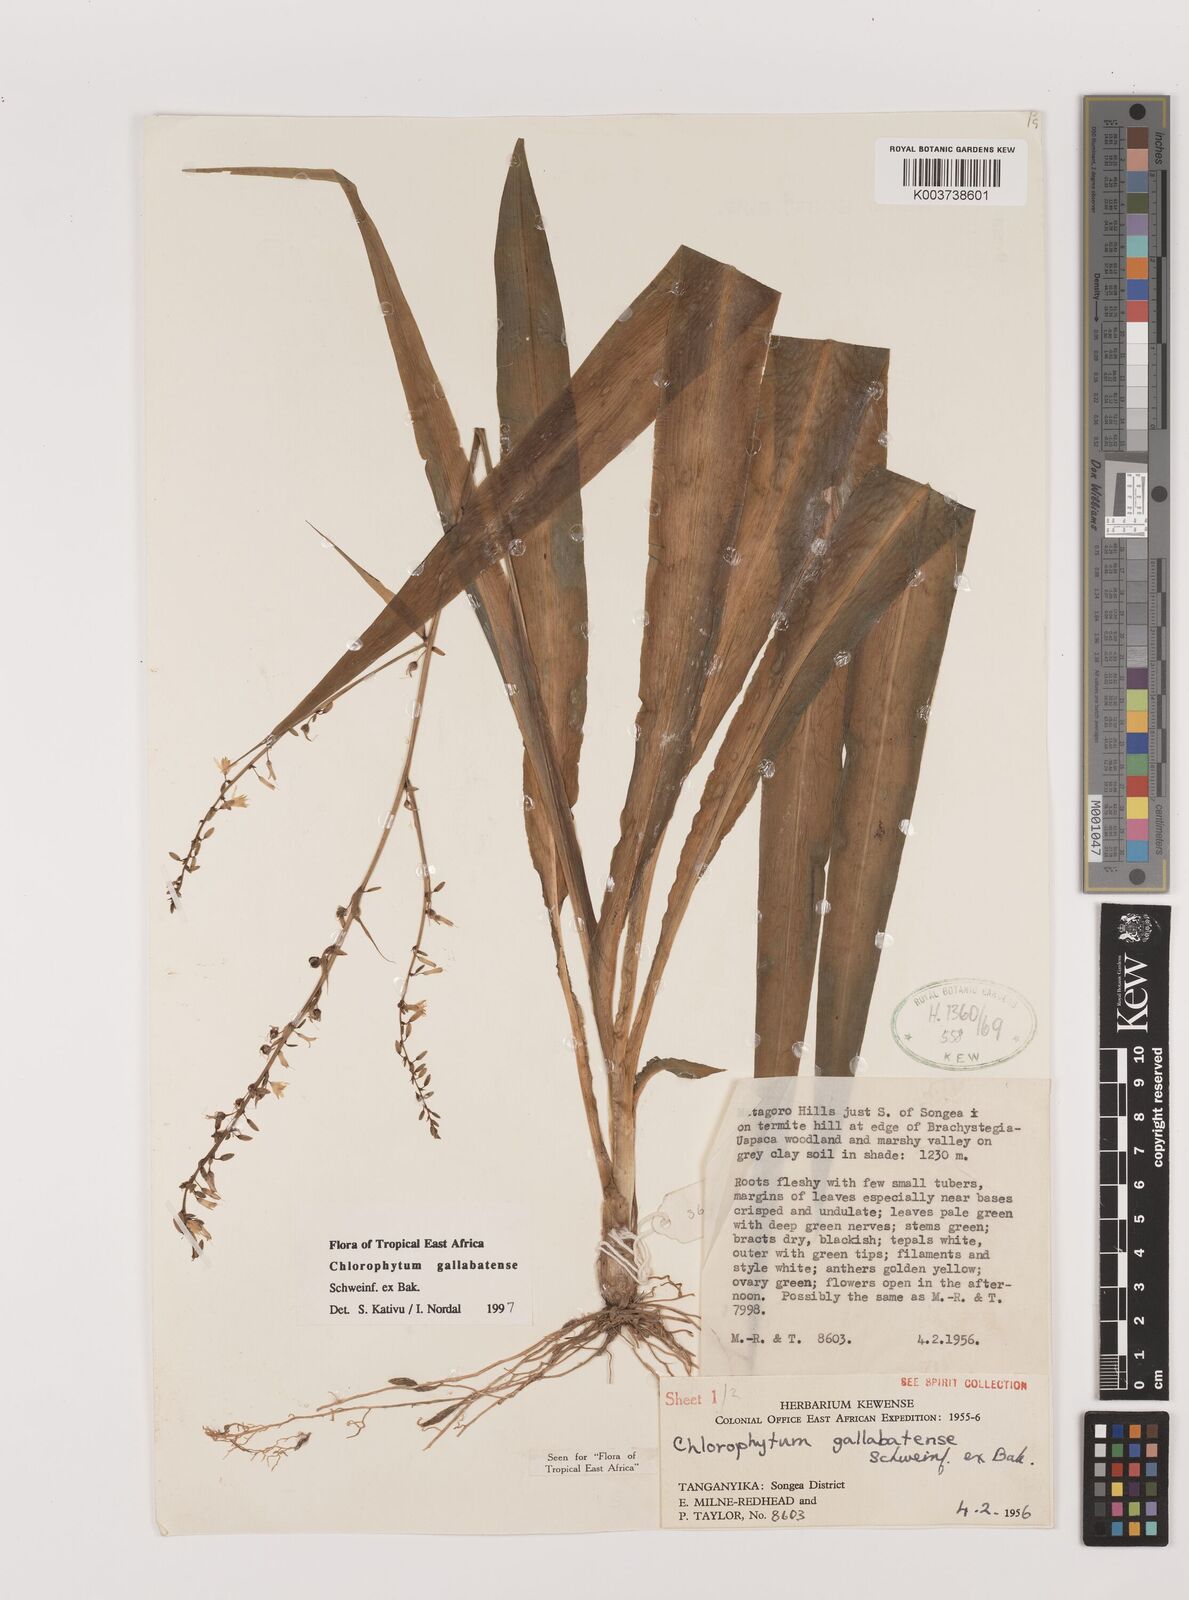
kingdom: Plantae
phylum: Tracheophyta
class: Liliopsida
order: Asparagales
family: Asparagaceae
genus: Chlorophytum
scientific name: Chlorophytum gallabatense
